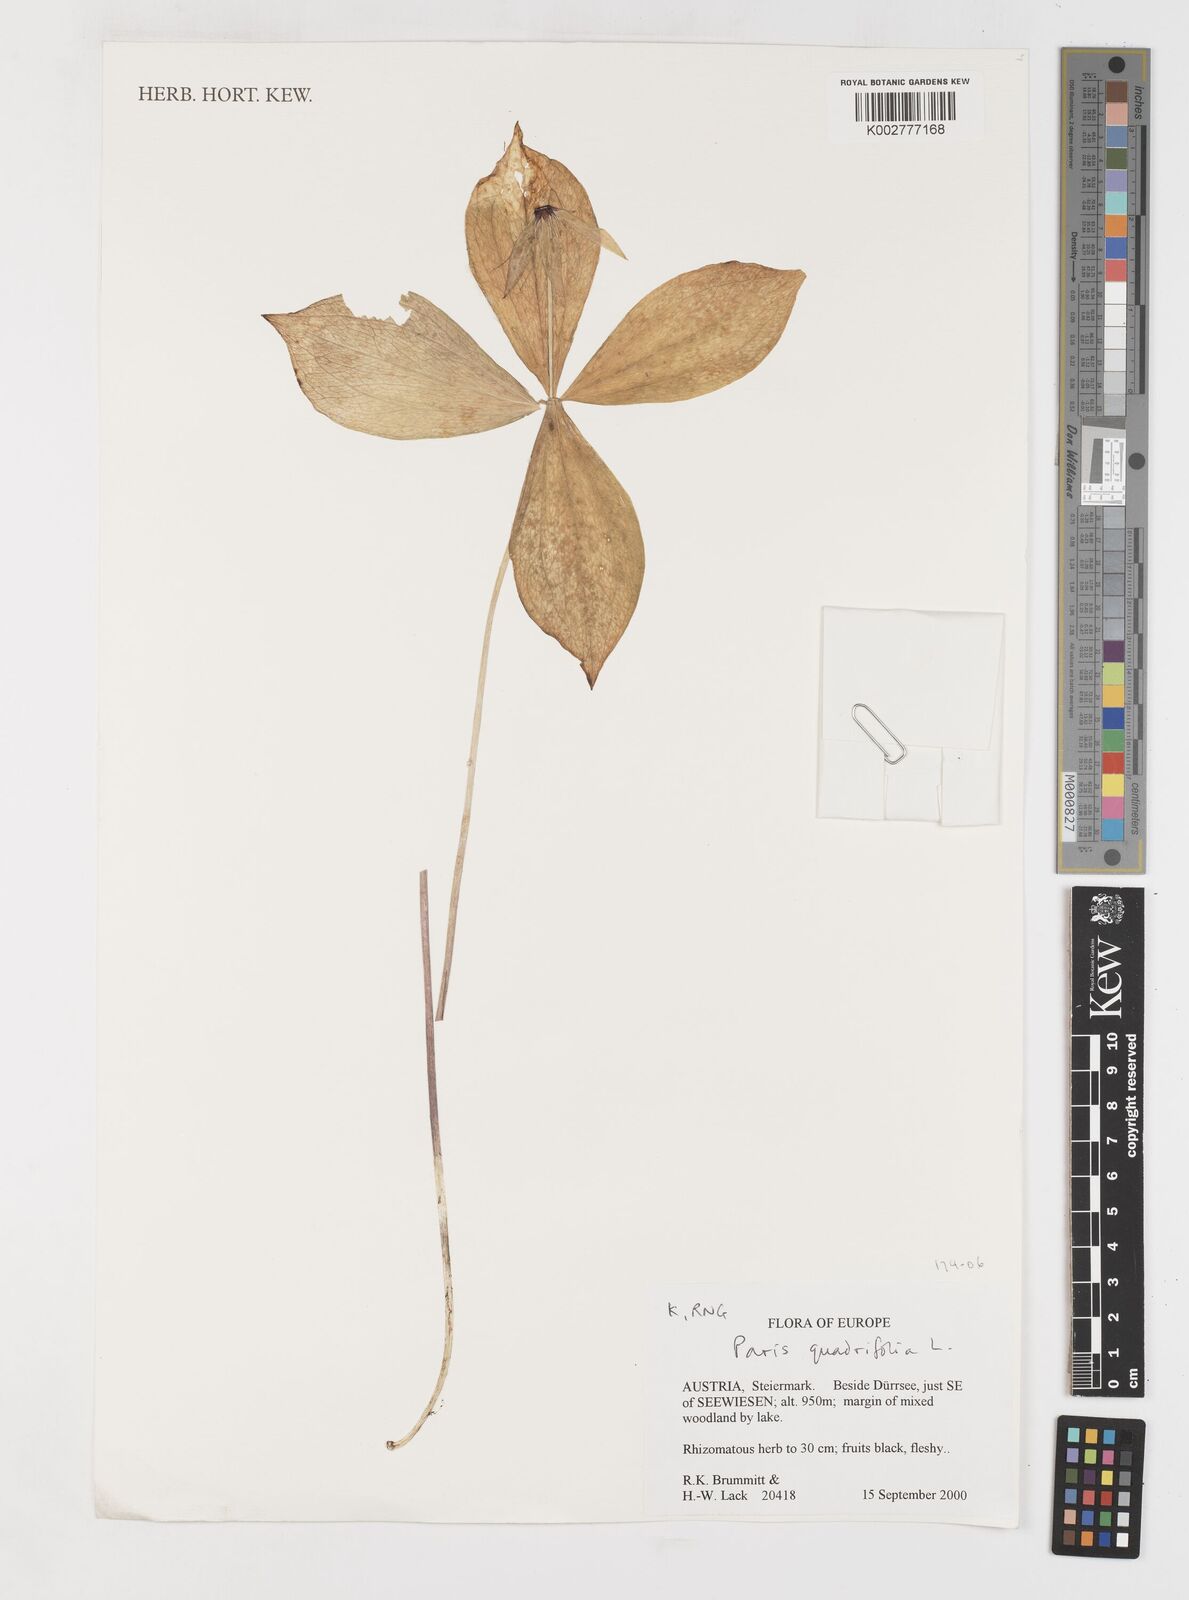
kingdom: Plantae
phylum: Tracheophyta
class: Liliopsida
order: Liliales
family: Melanthiaceae
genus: Paris
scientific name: Paris quadrifolia
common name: Herb-paris
